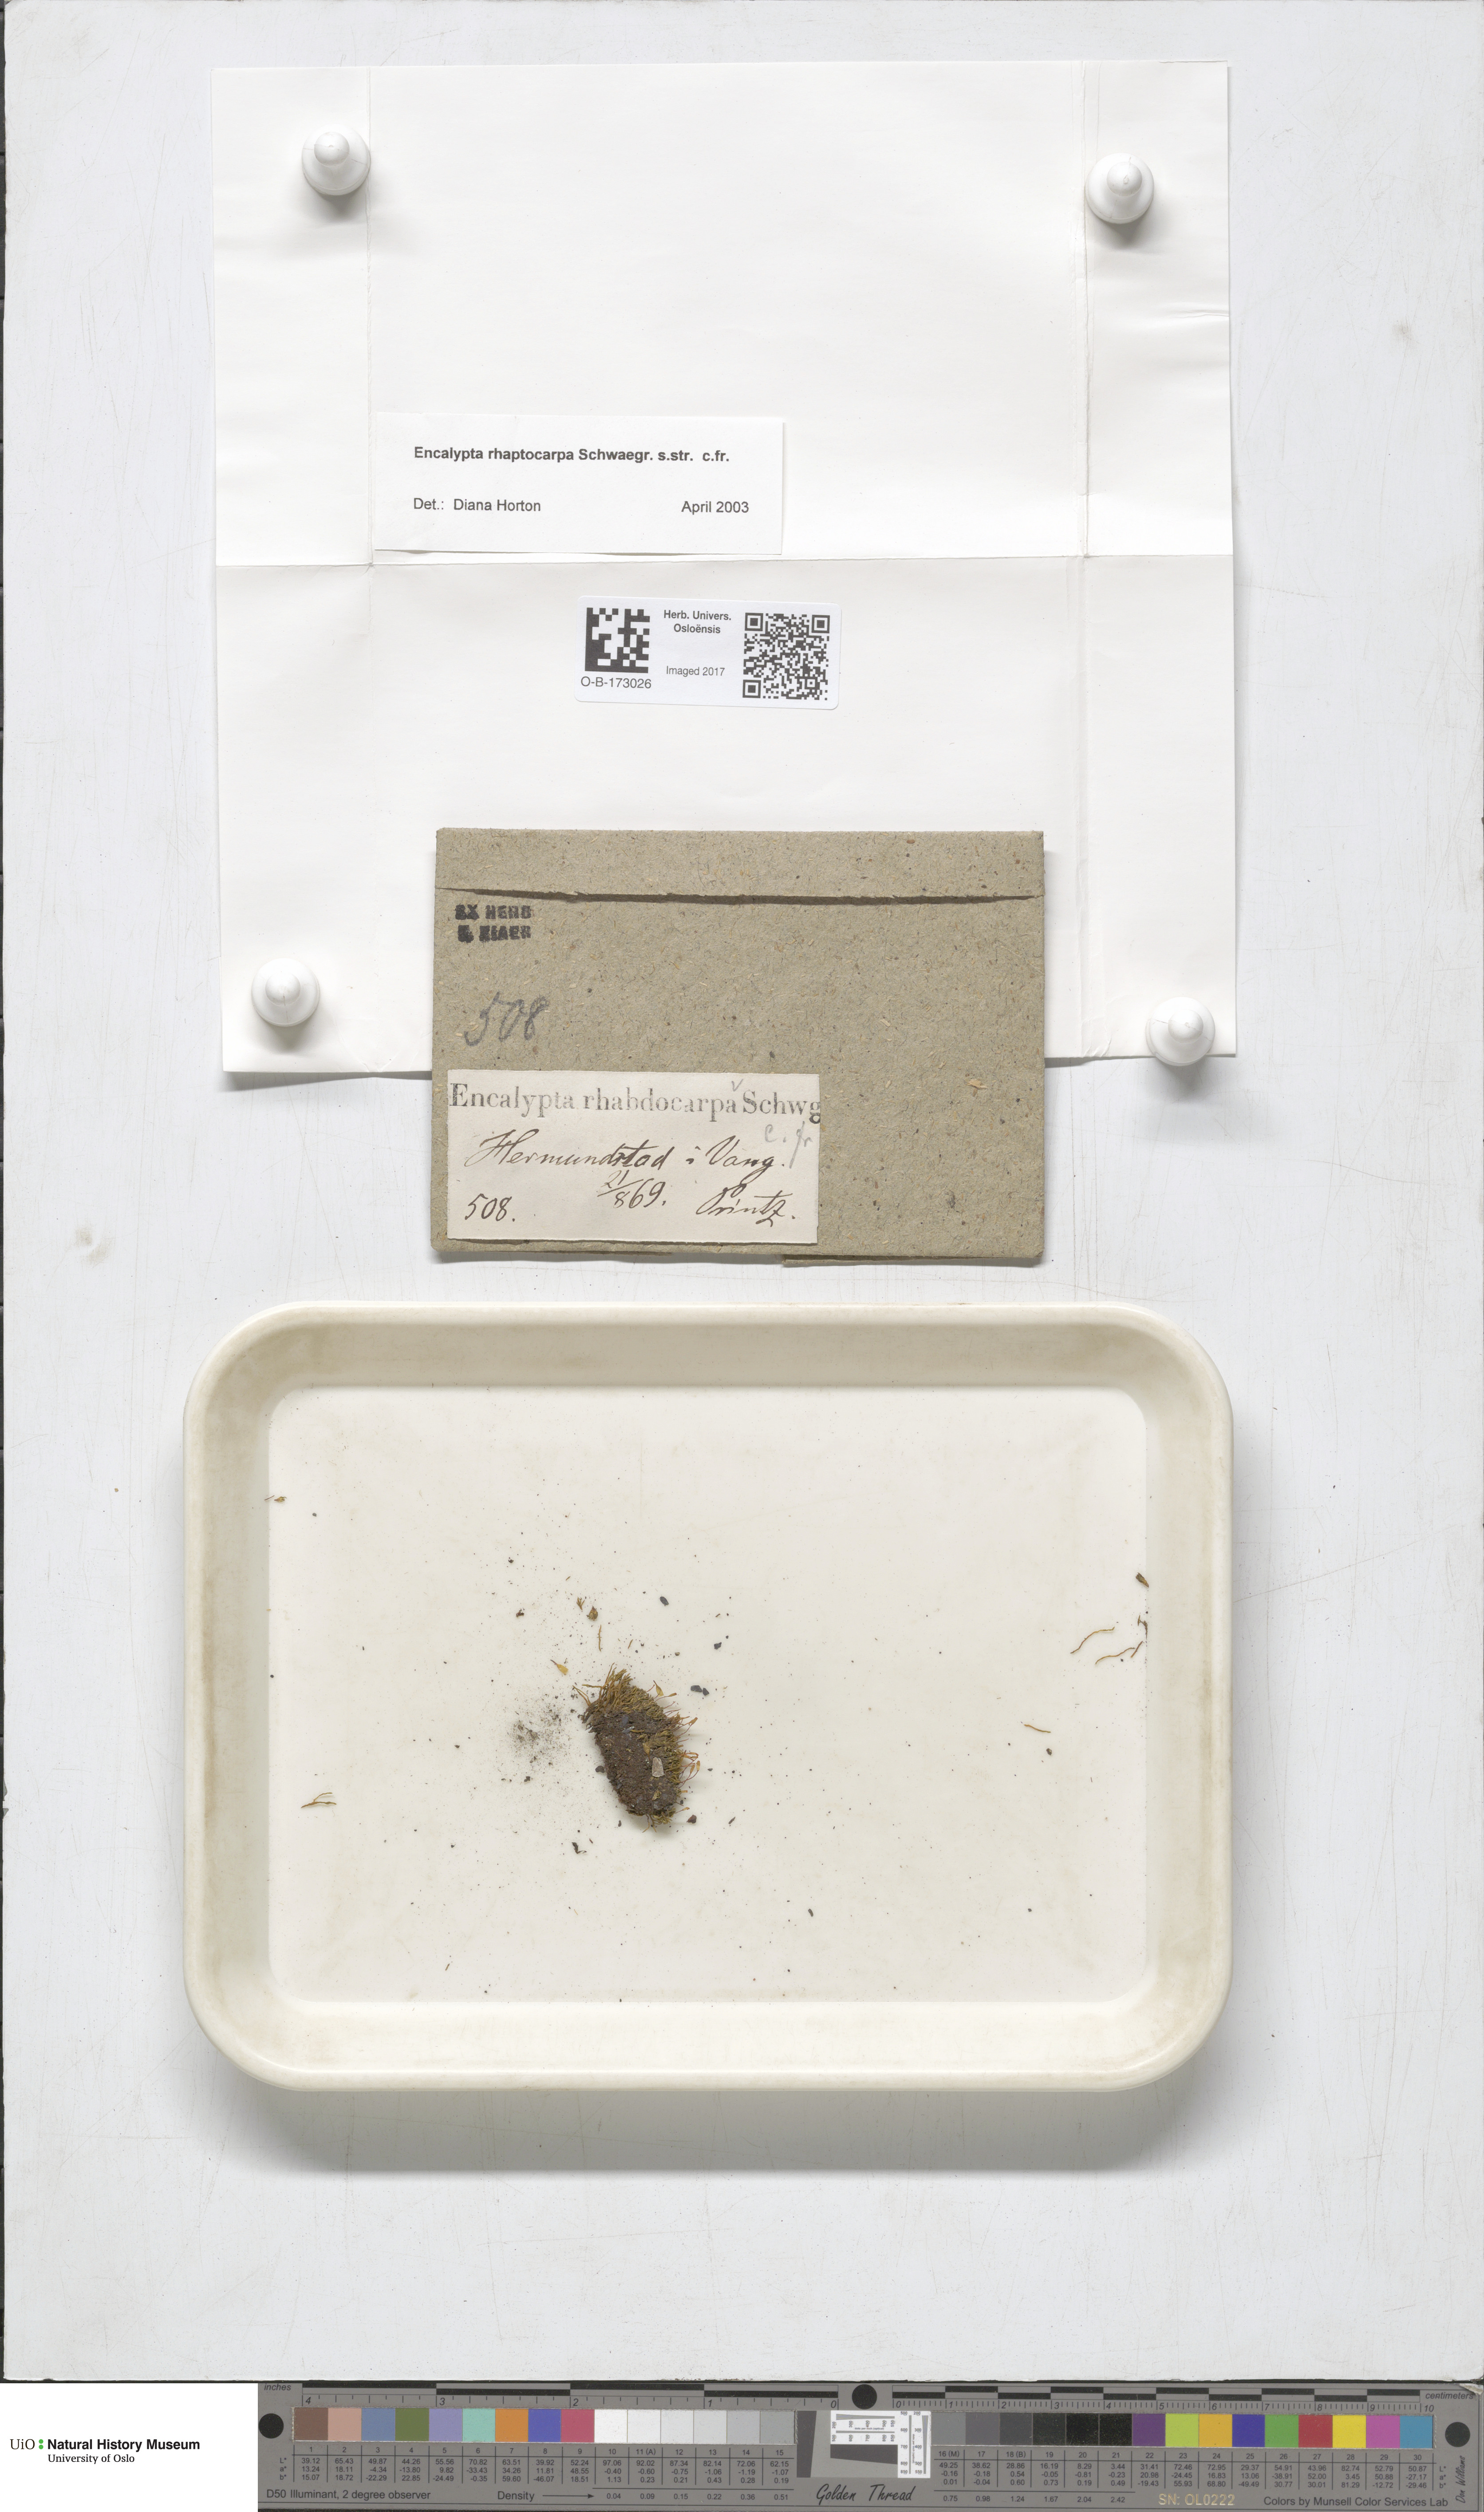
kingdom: Plantae
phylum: Bryophyta
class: Bryopsida
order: Encalyptales
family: Encalyptaceae
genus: Encalypta
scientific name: Encalypta rhaptocarpa
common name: Ribbed extinguisher moss
